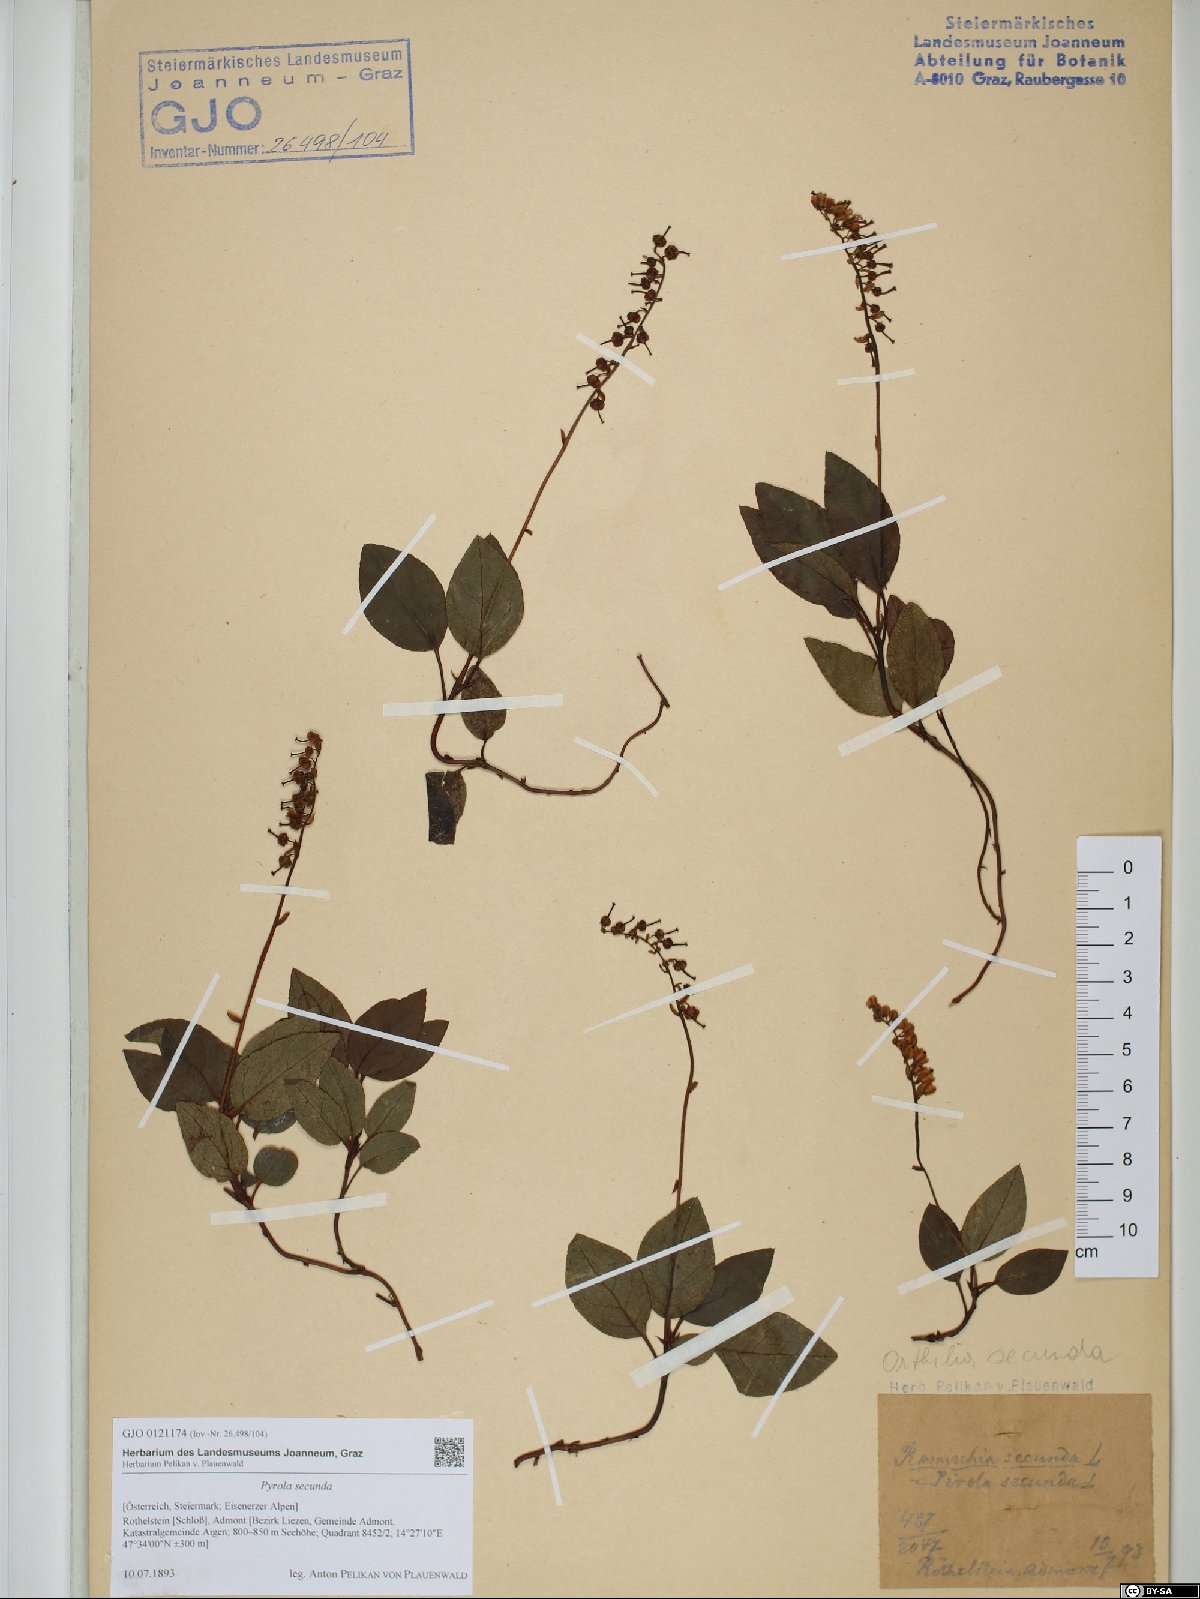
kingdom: Plantae
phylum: Tracheophyta
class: Magnoliopsida
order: Ericales
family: Ericaceae
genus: Orthilia
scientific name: Orthilia secunda
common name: One-sided orthilia
